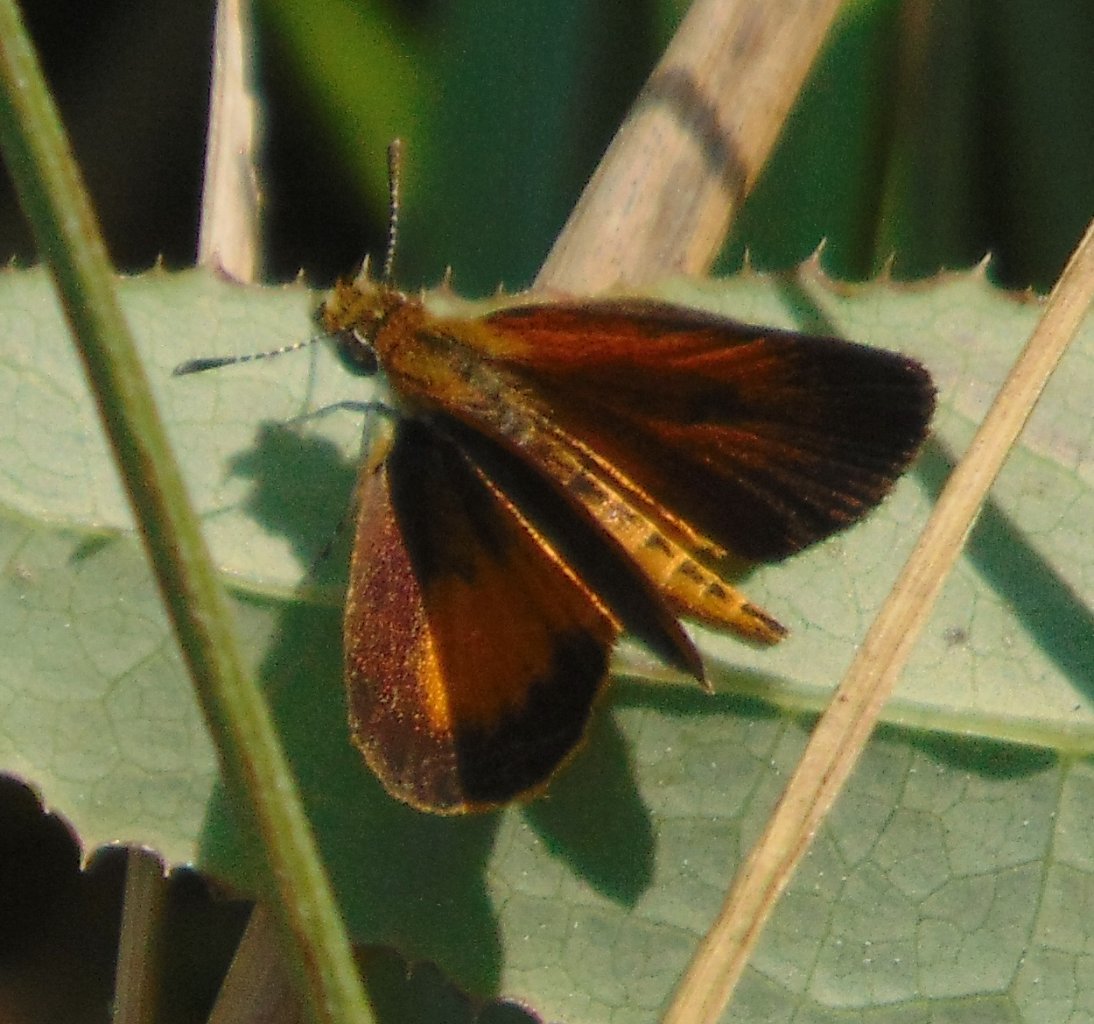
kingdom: Animalia
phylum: Arthropoda
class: Insecta
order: Lepidoptera
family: Hesperiidae
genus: Ancyloxypha
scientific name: Ancyloxypha numitor
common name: Least Skipper
